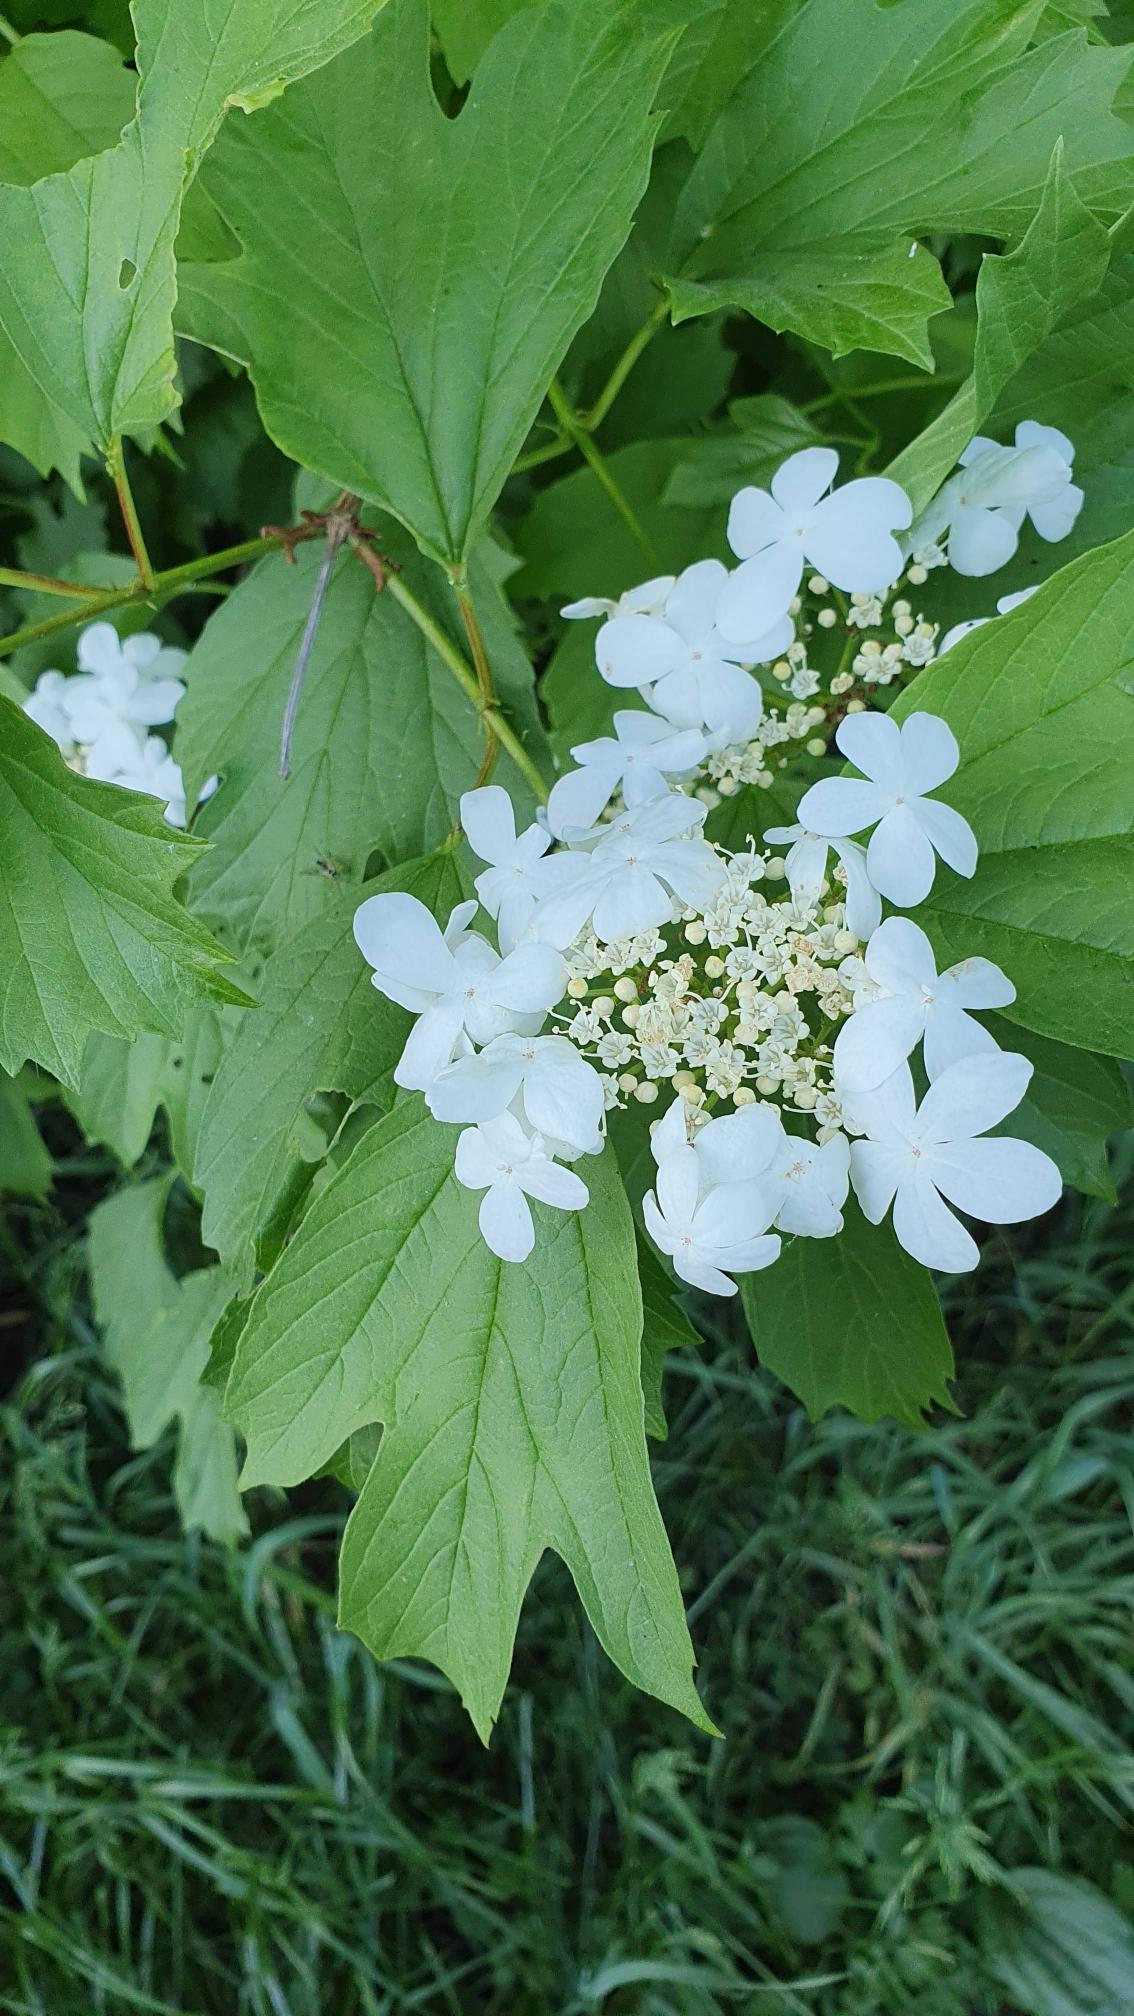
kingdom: Plantae
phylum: Tracheophyta
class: Magnoliopsida
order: Dipsacales
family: Viburnaceae
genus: Viburnum
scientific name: Viburnum opulus
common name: Kvalkved
